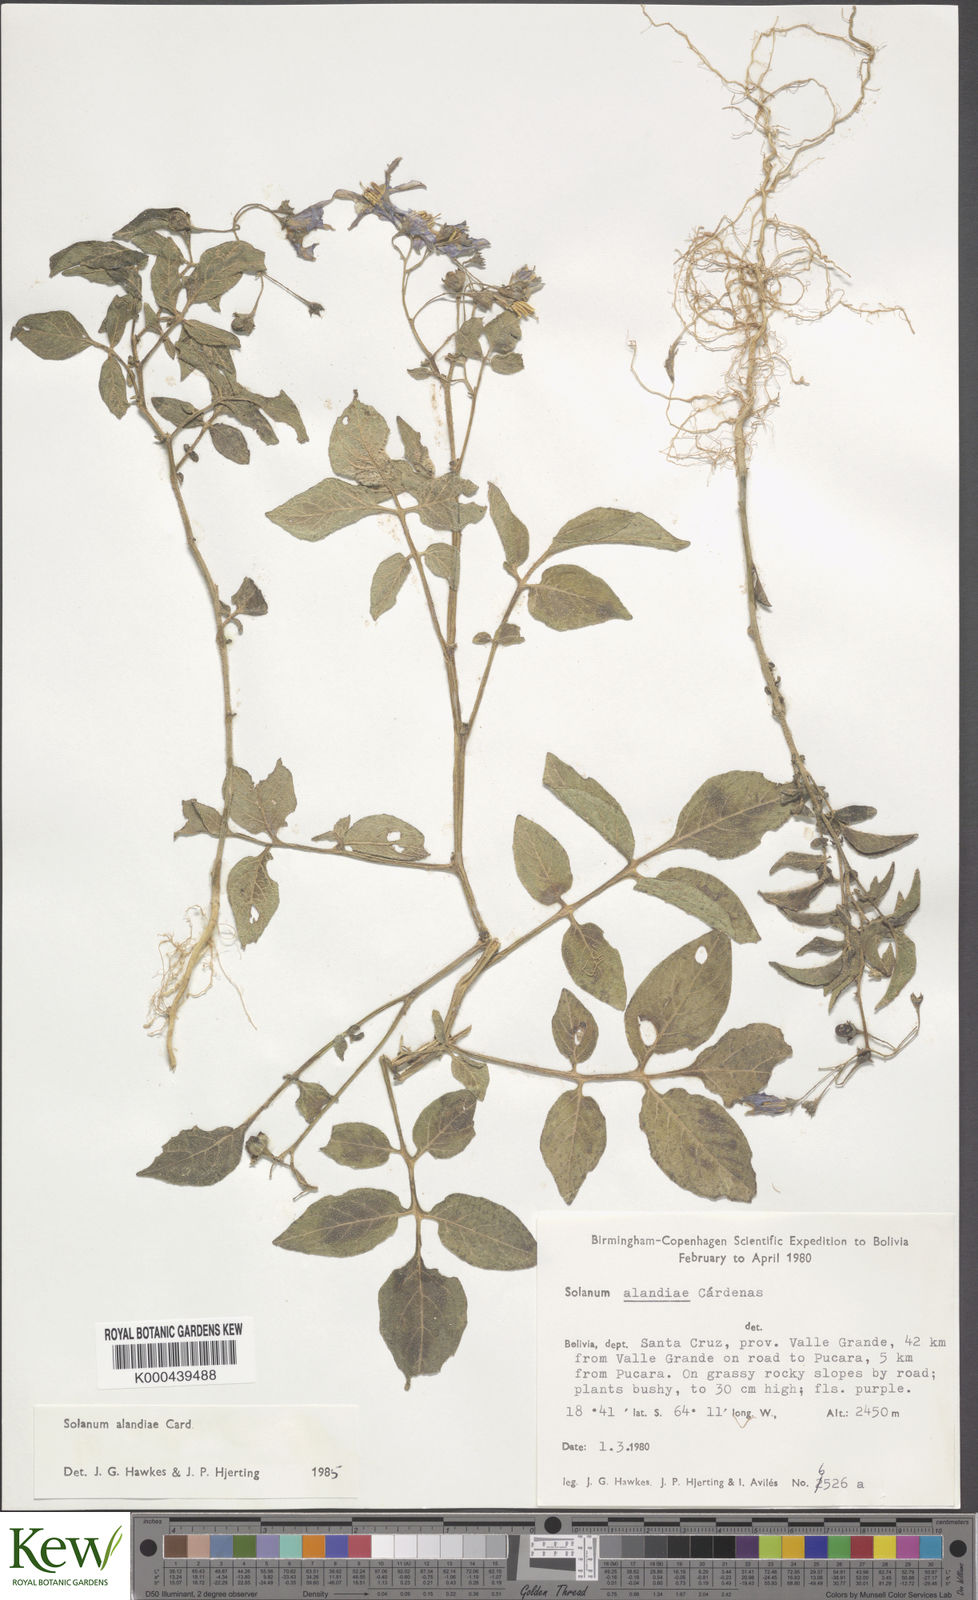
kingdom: Plantae
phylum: Tracheophyta
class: Magnoliopsida
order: Solanales
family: Solanaceae
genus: Solanum
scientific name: Solanum brevicaule
